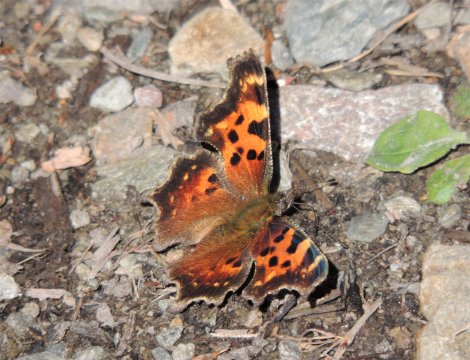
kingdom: Animalia
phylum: Arthropoda
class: Insecta
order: Lepidoptera
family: Nymphalidae
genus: Polygonia
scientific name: Polygonia faunus
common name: Green Comma
